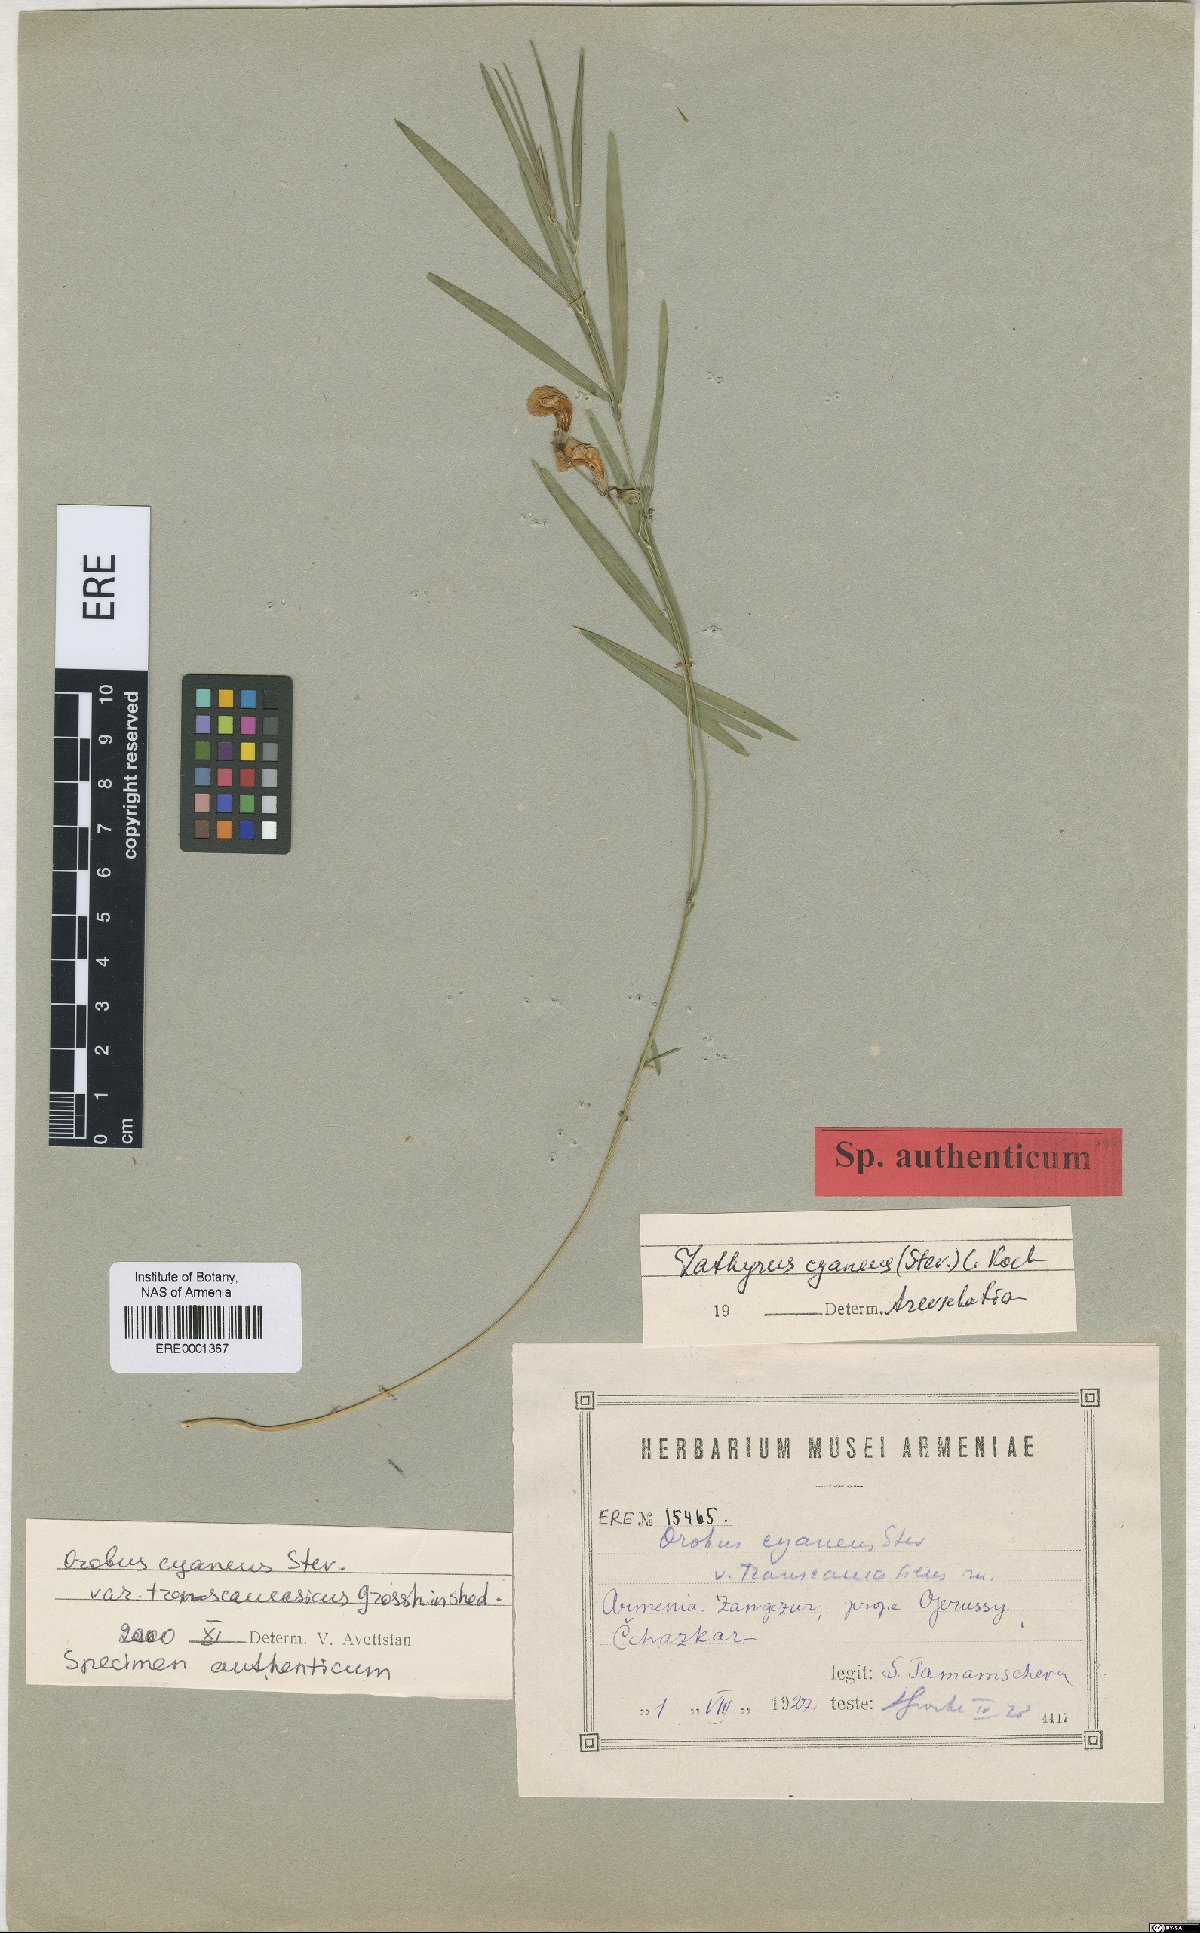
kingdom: Plantae
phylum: Tracheophyta
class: Magnoliopsida
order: Fabales
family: Fabaceae
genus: Lathyrus
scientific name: Lathyrus cyaneus
